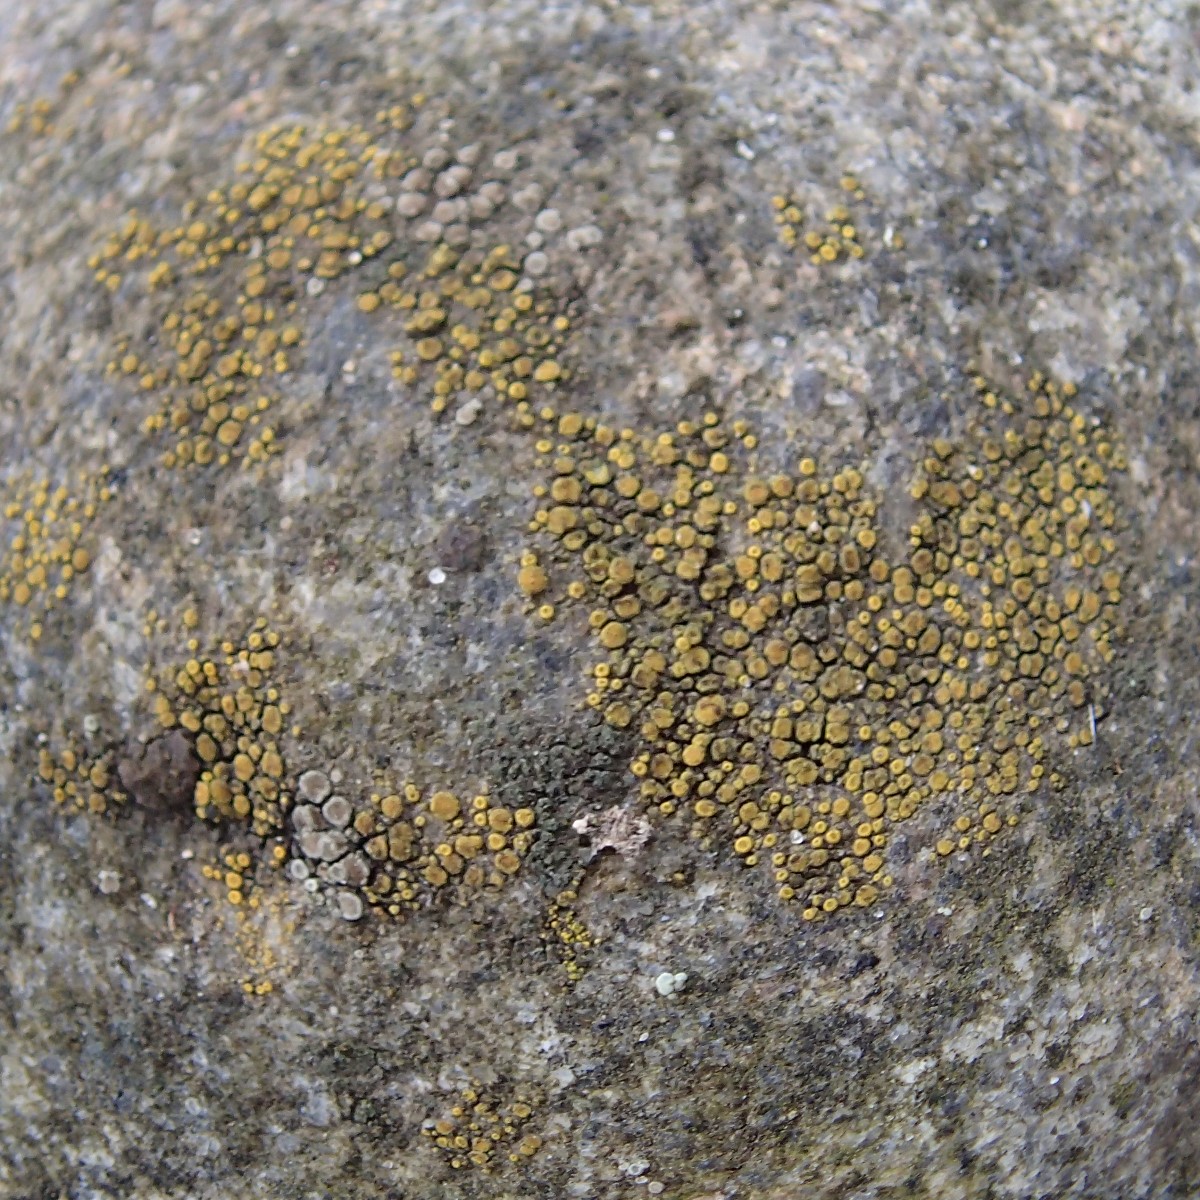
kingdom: Fungi
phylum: Ascomycota
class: Candelariomycetes
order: Candelariales
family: Candelariaceae
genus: Candelariella
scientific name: Candelariella vitellina
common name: almindelig æggeblommelav
